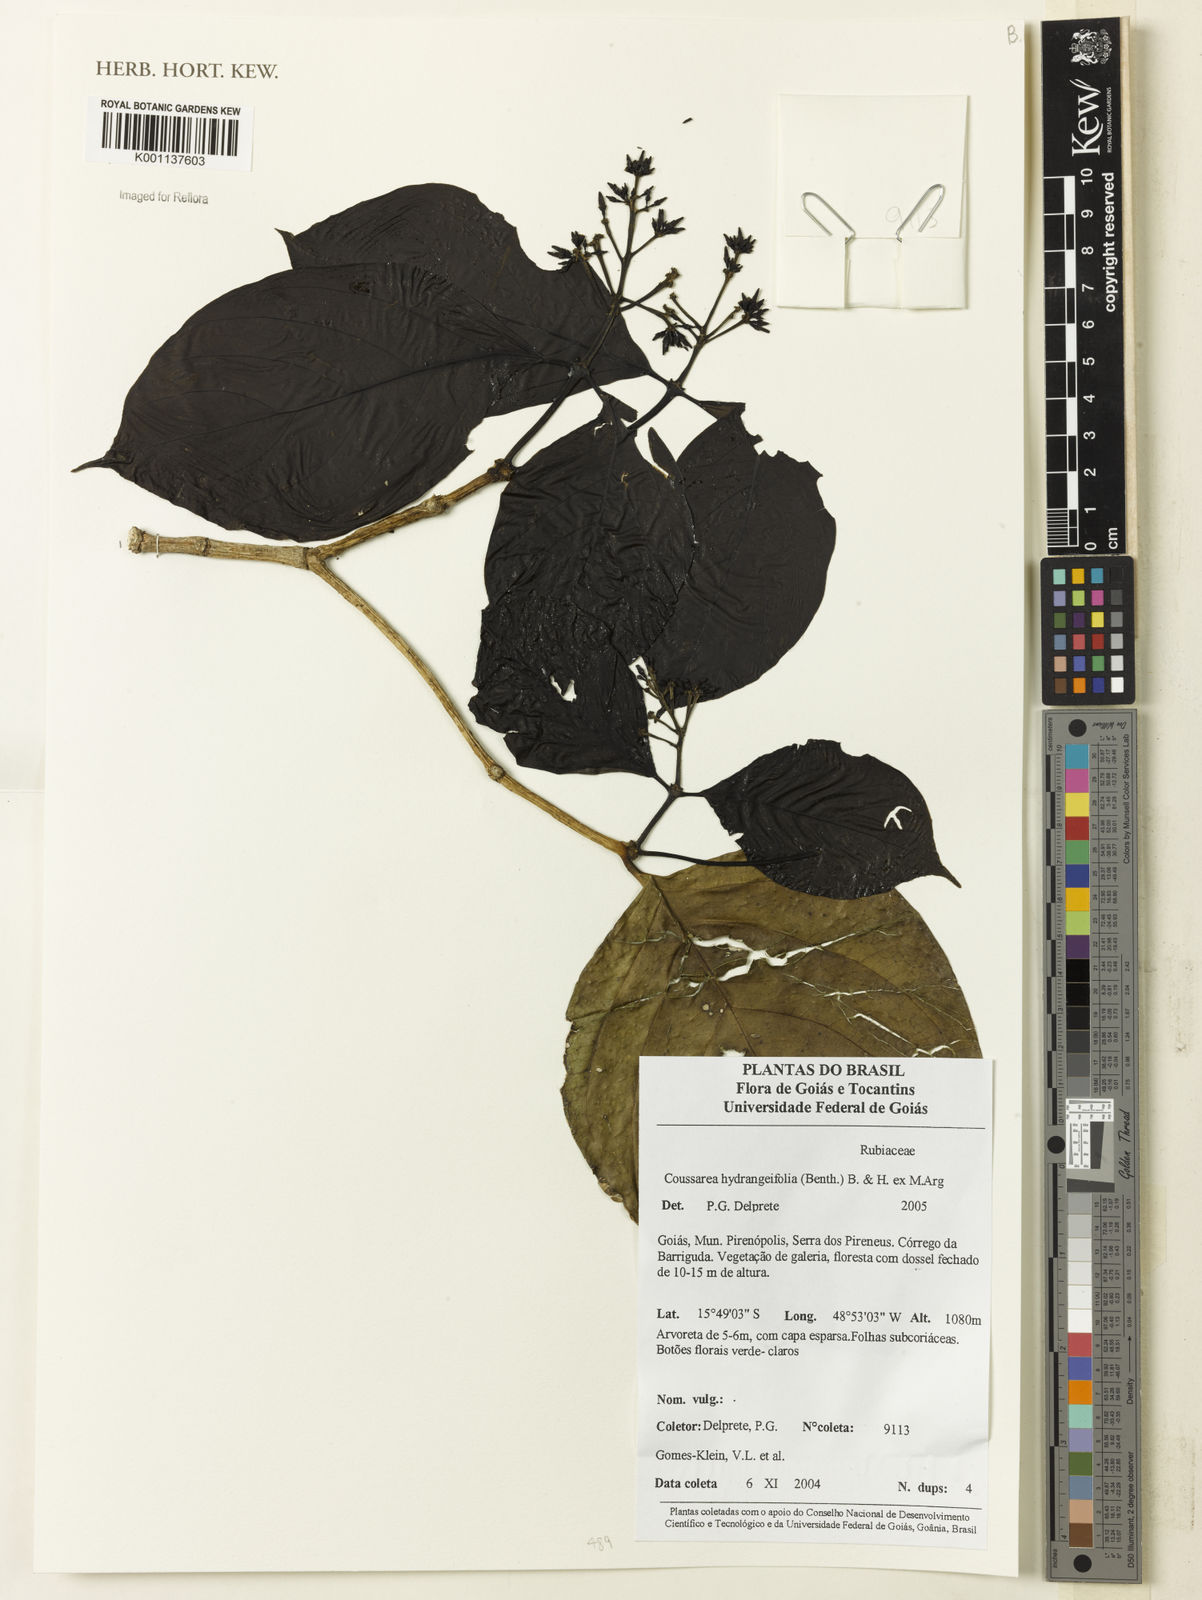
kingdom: Plantae
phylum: Tracheophyta
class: Magnoliopsida
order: Gentianales
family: Rubiaceae
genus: Coussarea
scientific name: Coussarea
